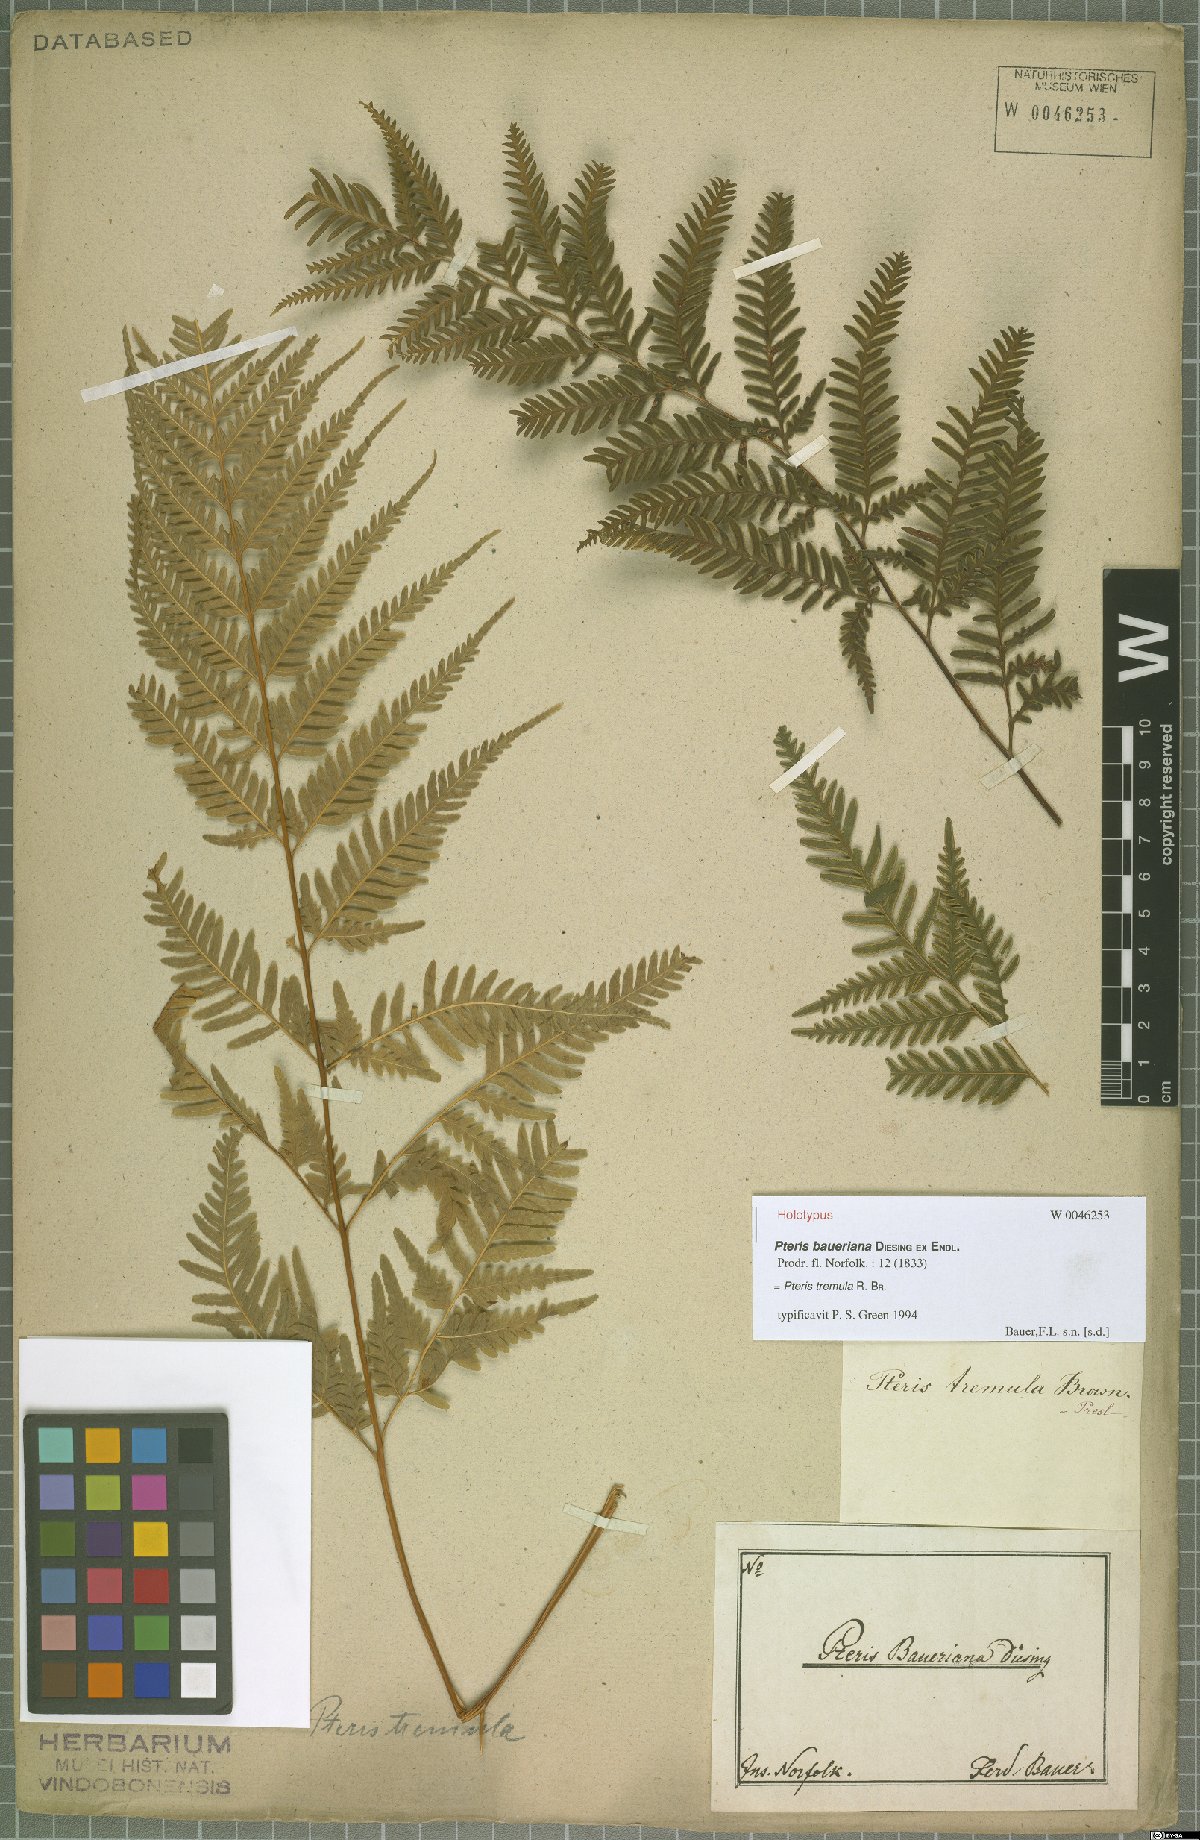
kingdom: Plantae
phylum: Tracheophyta
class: Polypodiopsida
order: Polypodiales
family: Pteridaceae
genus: Pteris
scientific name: Pteris tremula
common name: Australian brake
